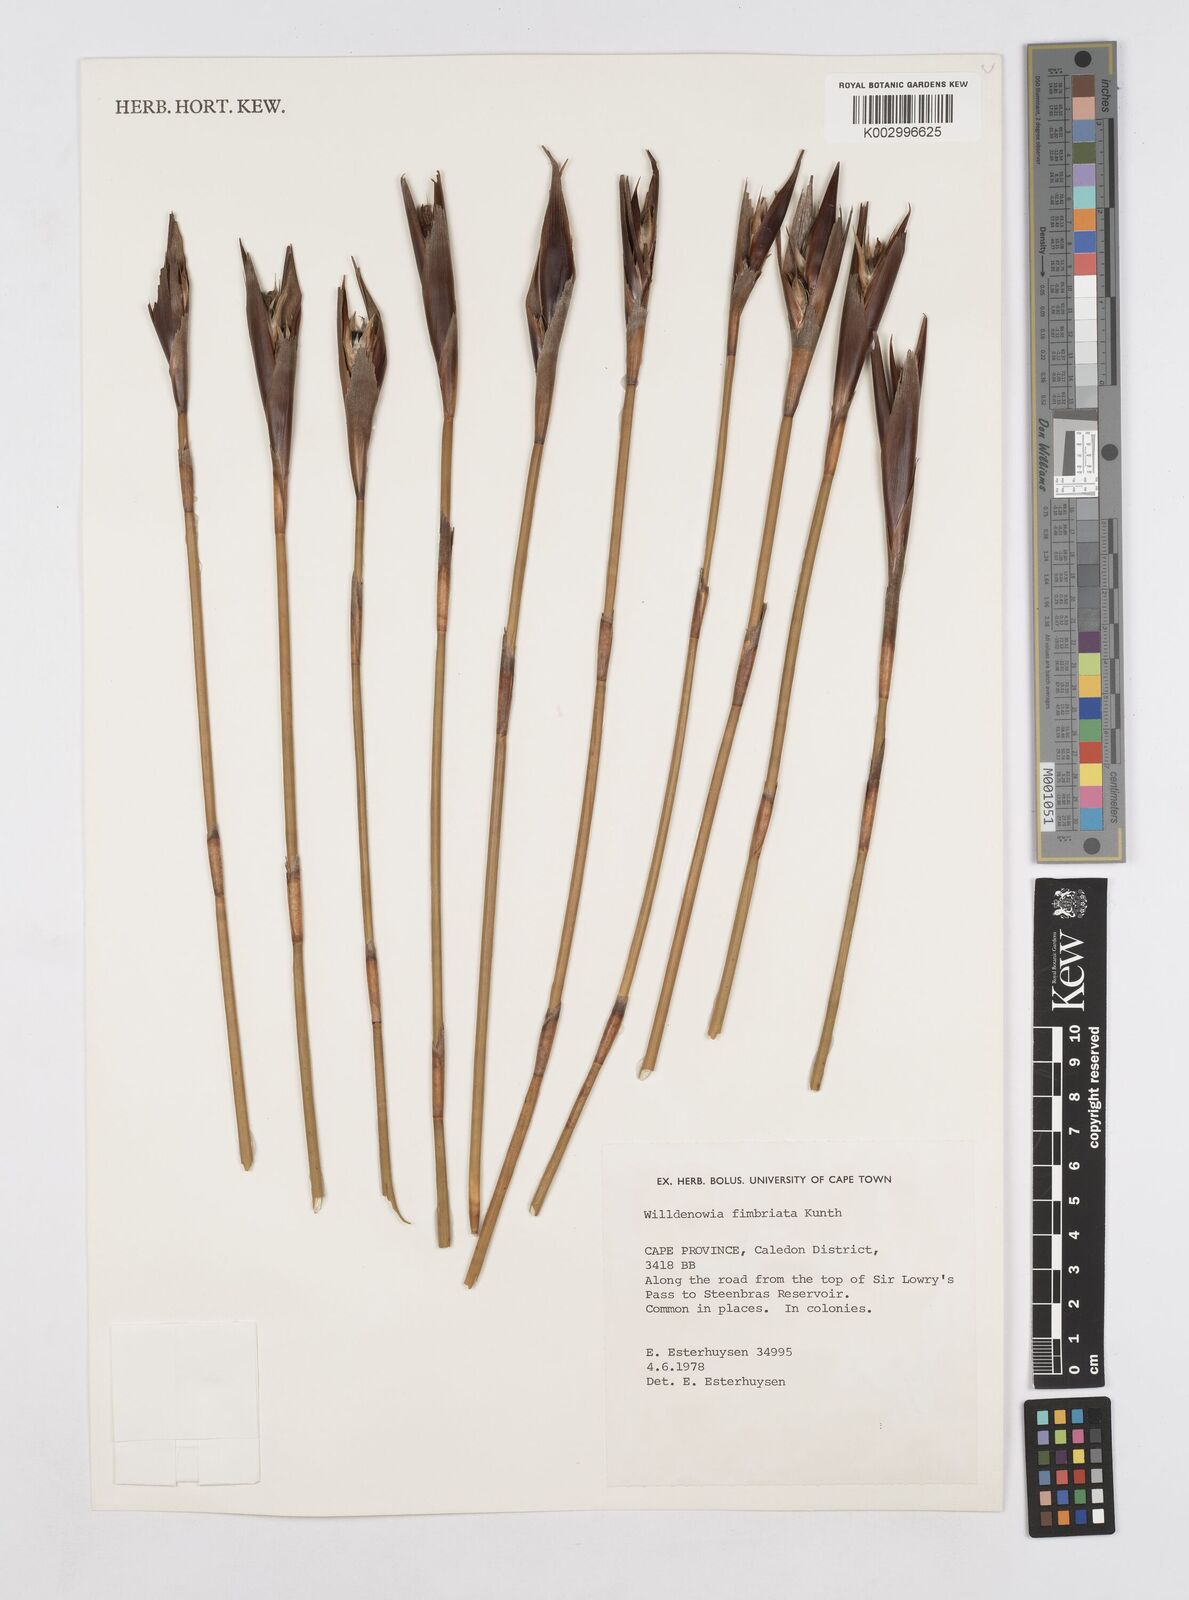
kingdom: Plantae
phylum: Tracheophyta
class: Liliopsida
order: Poales
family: Restionaceae
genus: Ceratocaryum
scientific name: Ceratocaryum fimbriatum
